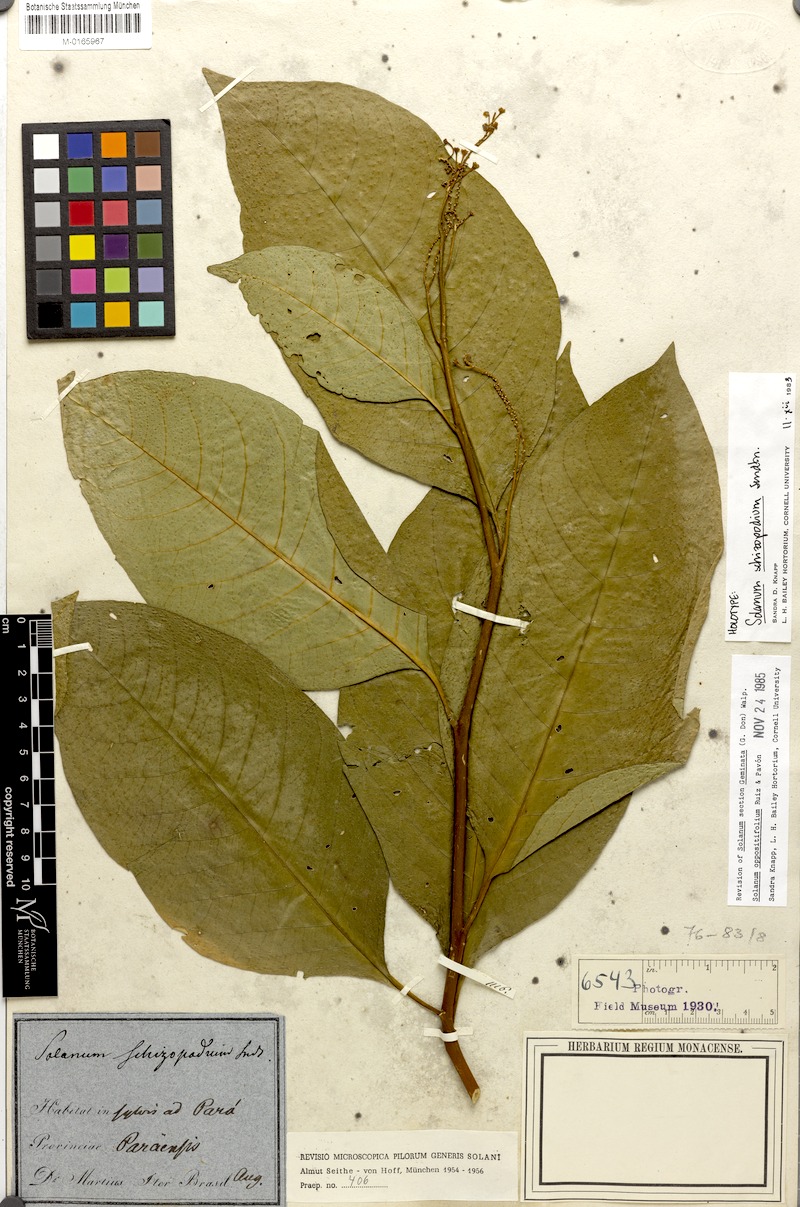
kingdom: Plantae
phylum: Tracheophyta
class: Magnoliopsida
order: Solanales
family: Solanaceae
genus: Solanum
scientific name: Solanum oppositifolium
